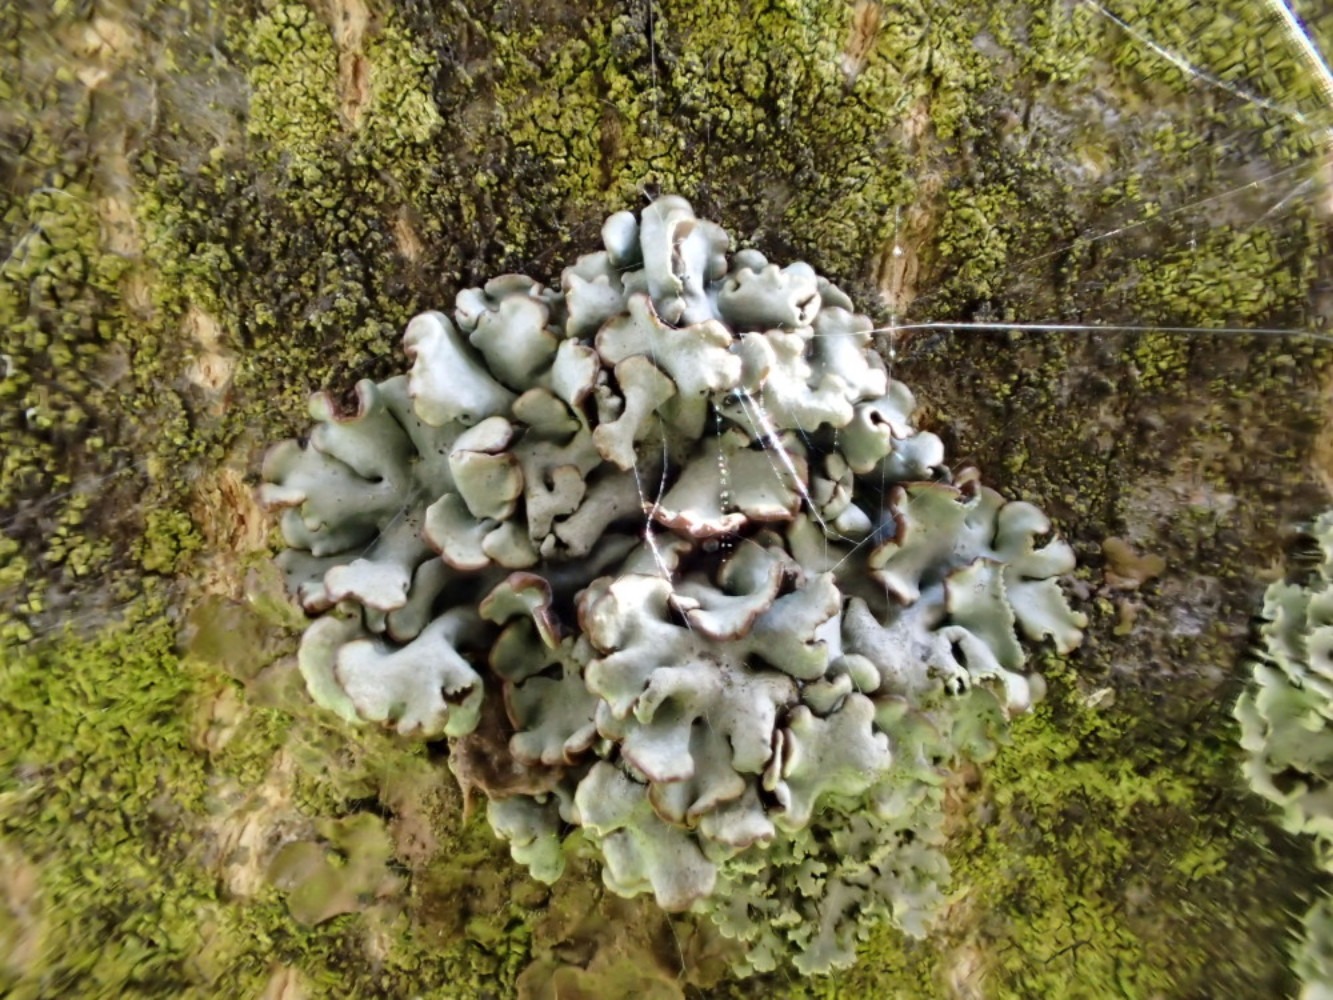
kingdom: Fungi
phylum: Ascomycota
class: Lecanoromycetes
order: Lecanorales
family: Parmeliaceae
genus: Hypogymnia
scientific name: Hypogymnia physodes
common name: almindelig kvistlav
